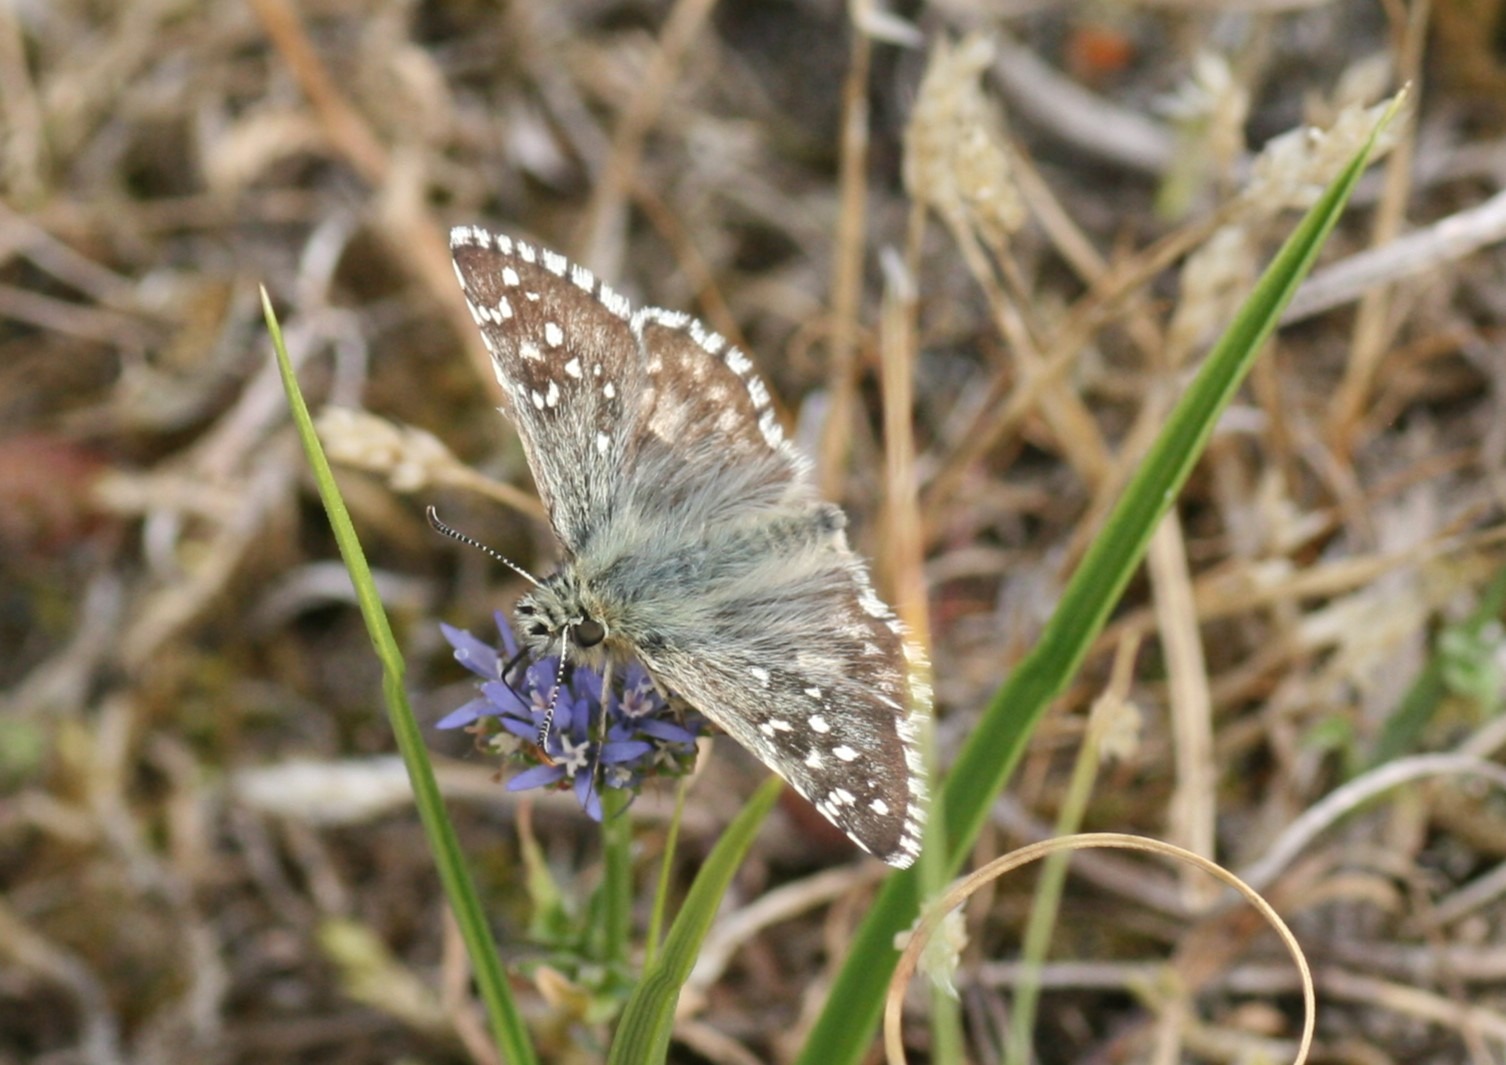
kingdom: Animalia
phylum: Arthropoda
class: Insecta
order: Lepidoptera
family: Hesperiidae
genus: Pyrgus
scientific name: Pyrgus armoricanus
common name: Fransk bredpande
